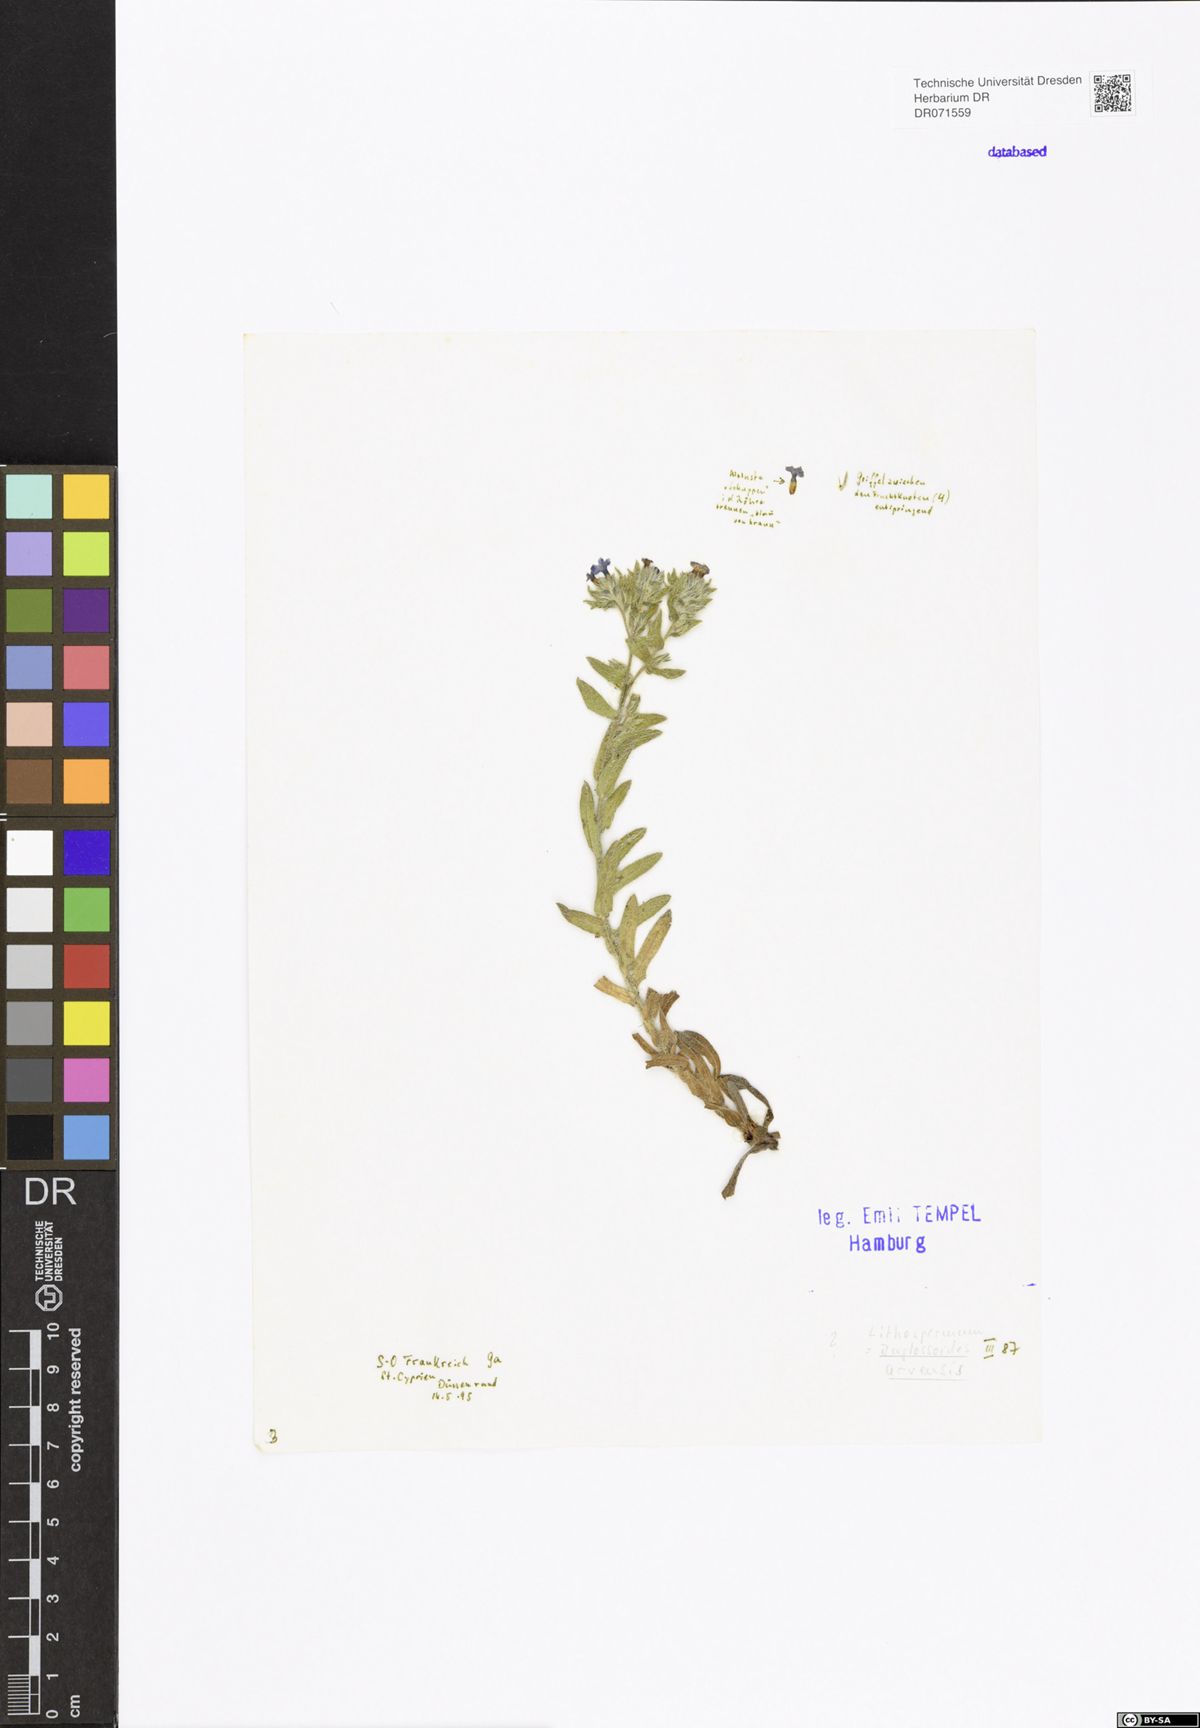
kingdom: Plantae
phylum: Tracheophyta
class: Magnoliopsida
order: Boraginales
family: Boraginaceae
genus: Buglossoides
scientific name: Buglossoides arvensis
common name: Corn gromwell
